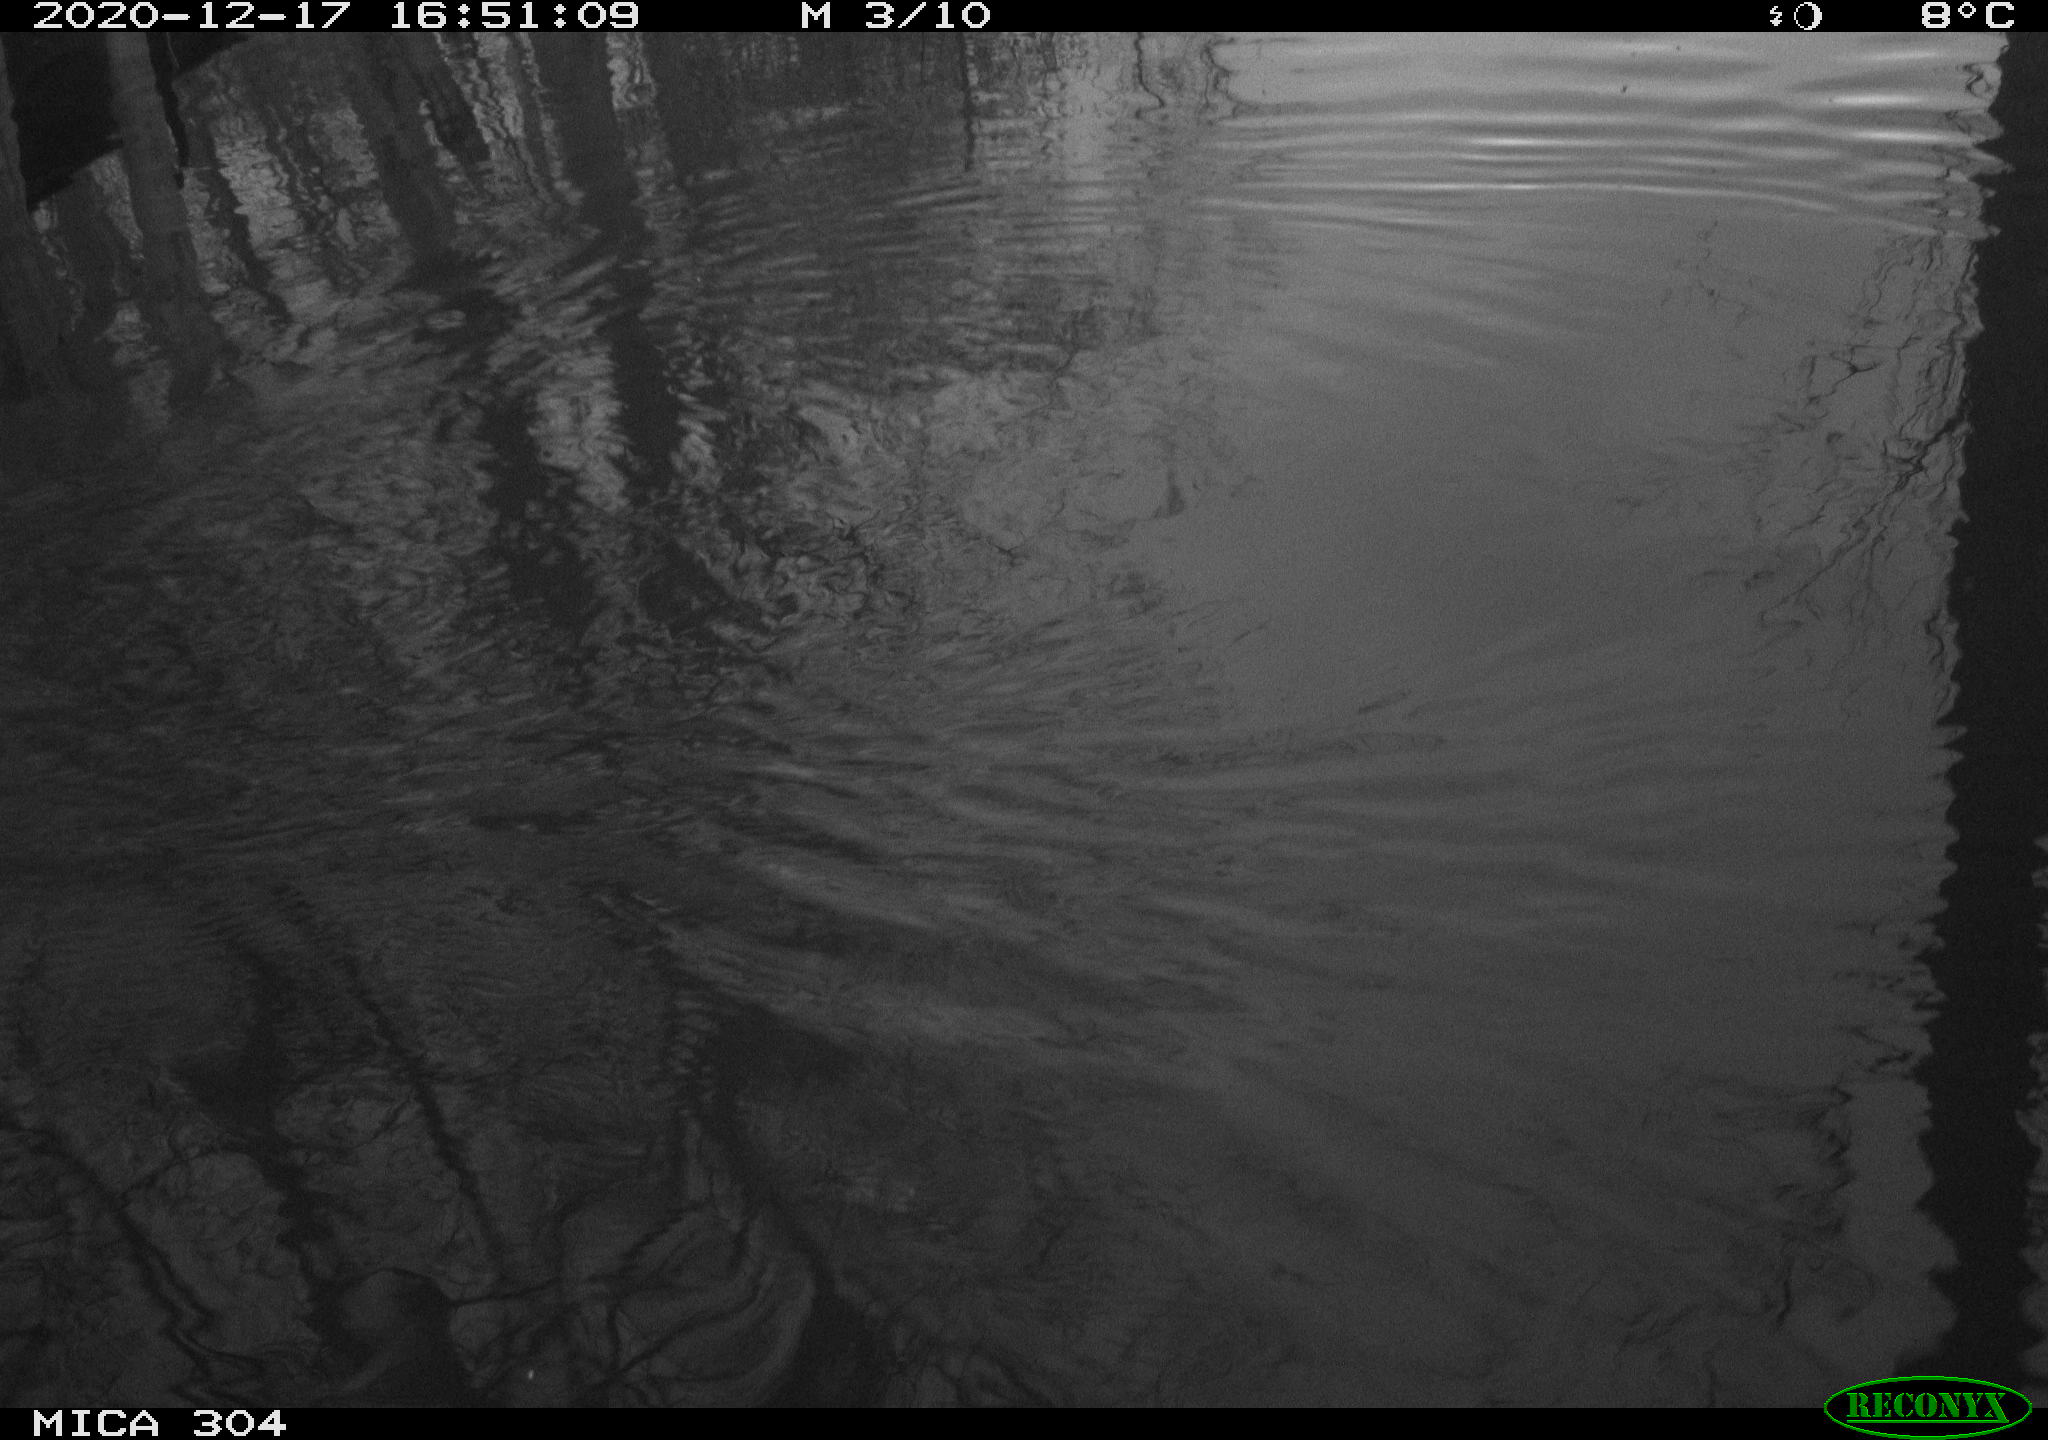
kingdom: Animalia
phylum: Chordata
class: Aves
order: Gruiformes
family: Rallidae
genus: Gallinula
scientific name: Gallinula chloropus
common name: Common moorhen
